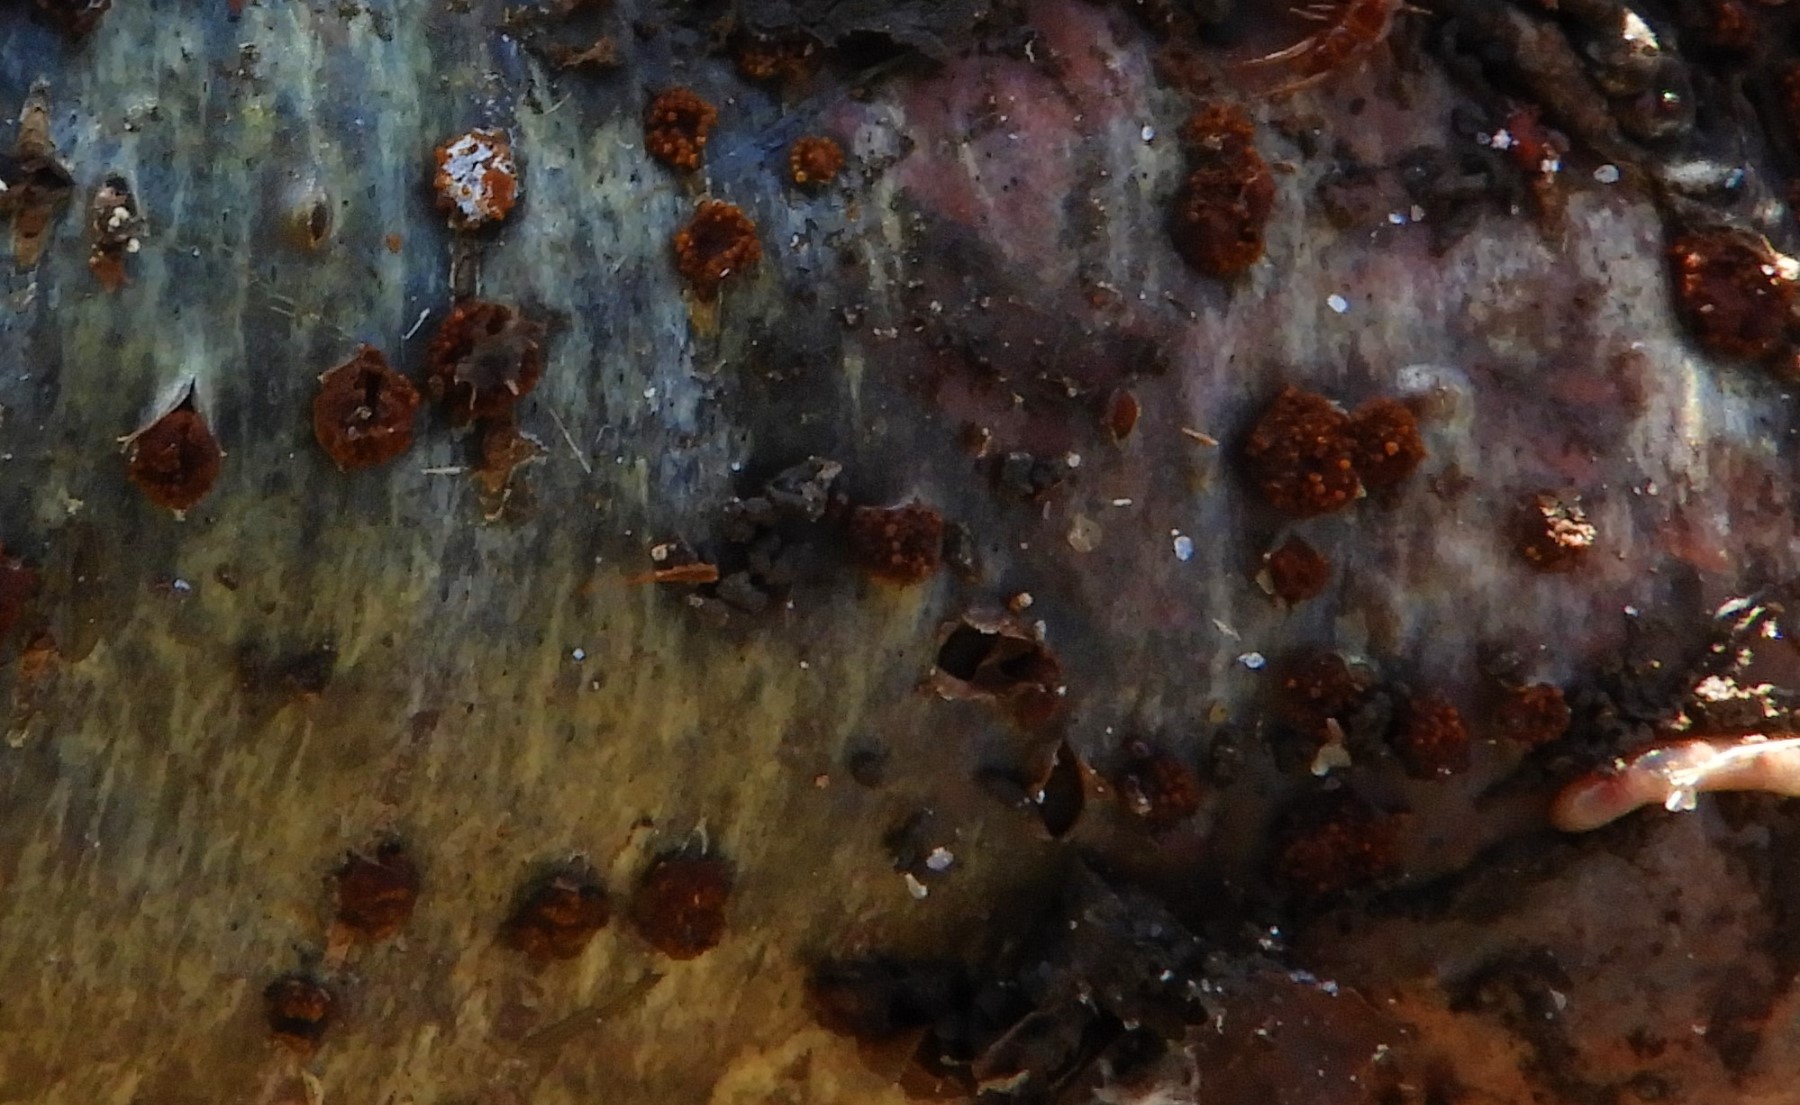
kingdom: Fungi
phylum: Ascomycota
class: Sordariomycetes
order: Hypocreales
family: Nectriaceae
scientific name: Nectriaceae
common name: cinnobersvampfamilien
